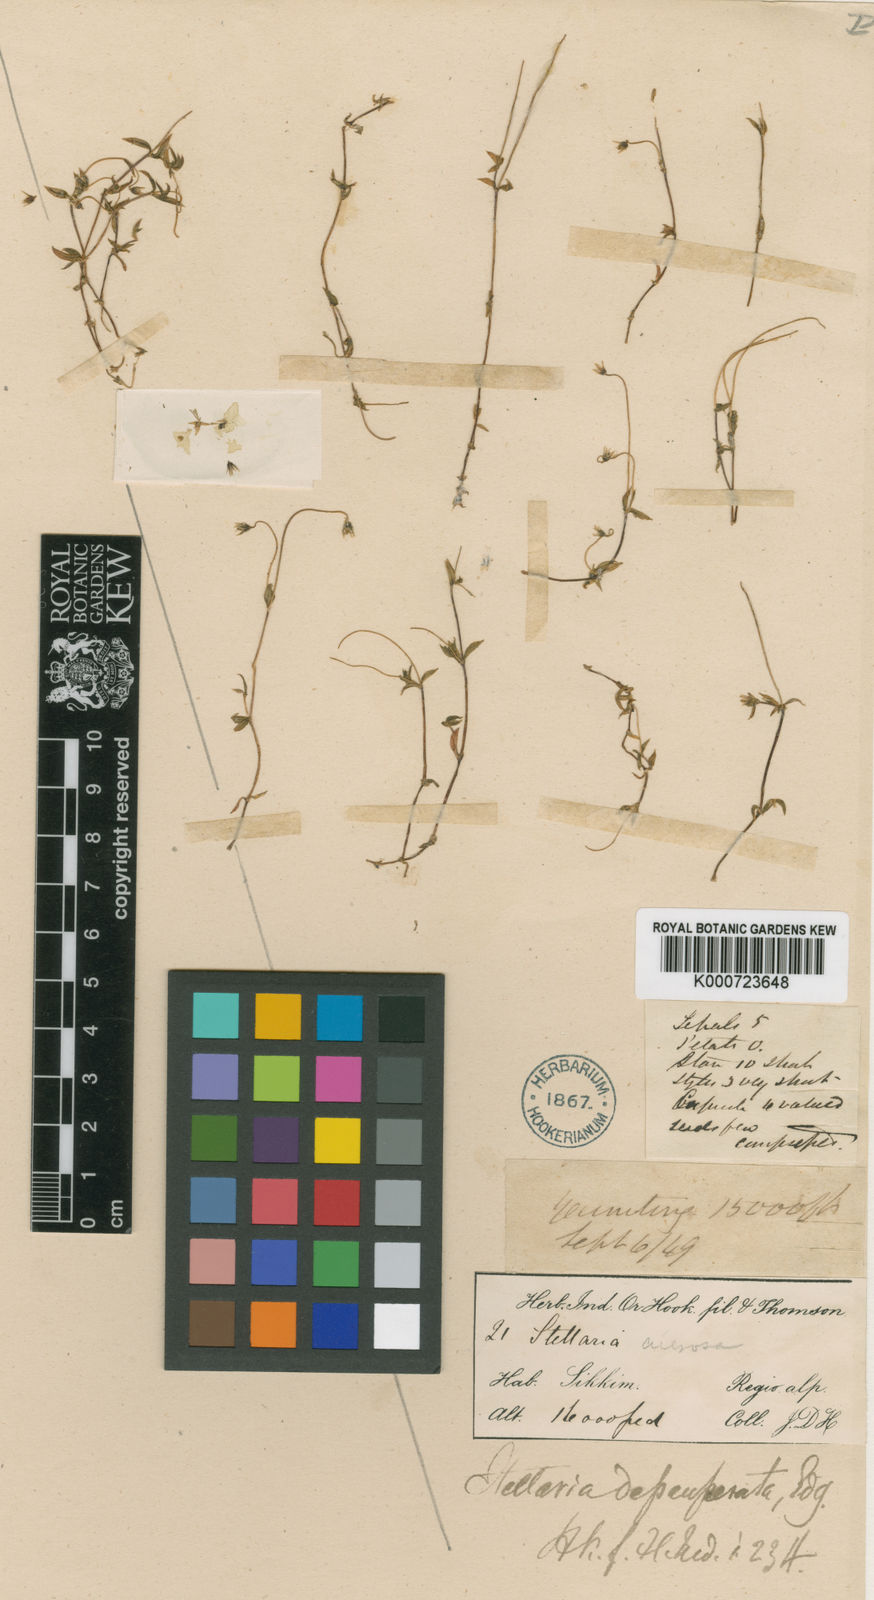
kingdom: Plantae
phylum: Tracheophyta
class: Magnoliopsida
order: Caryophyllales
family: Caryophyllaceae
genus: Stellaria
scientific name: Stellaria subumbellata
